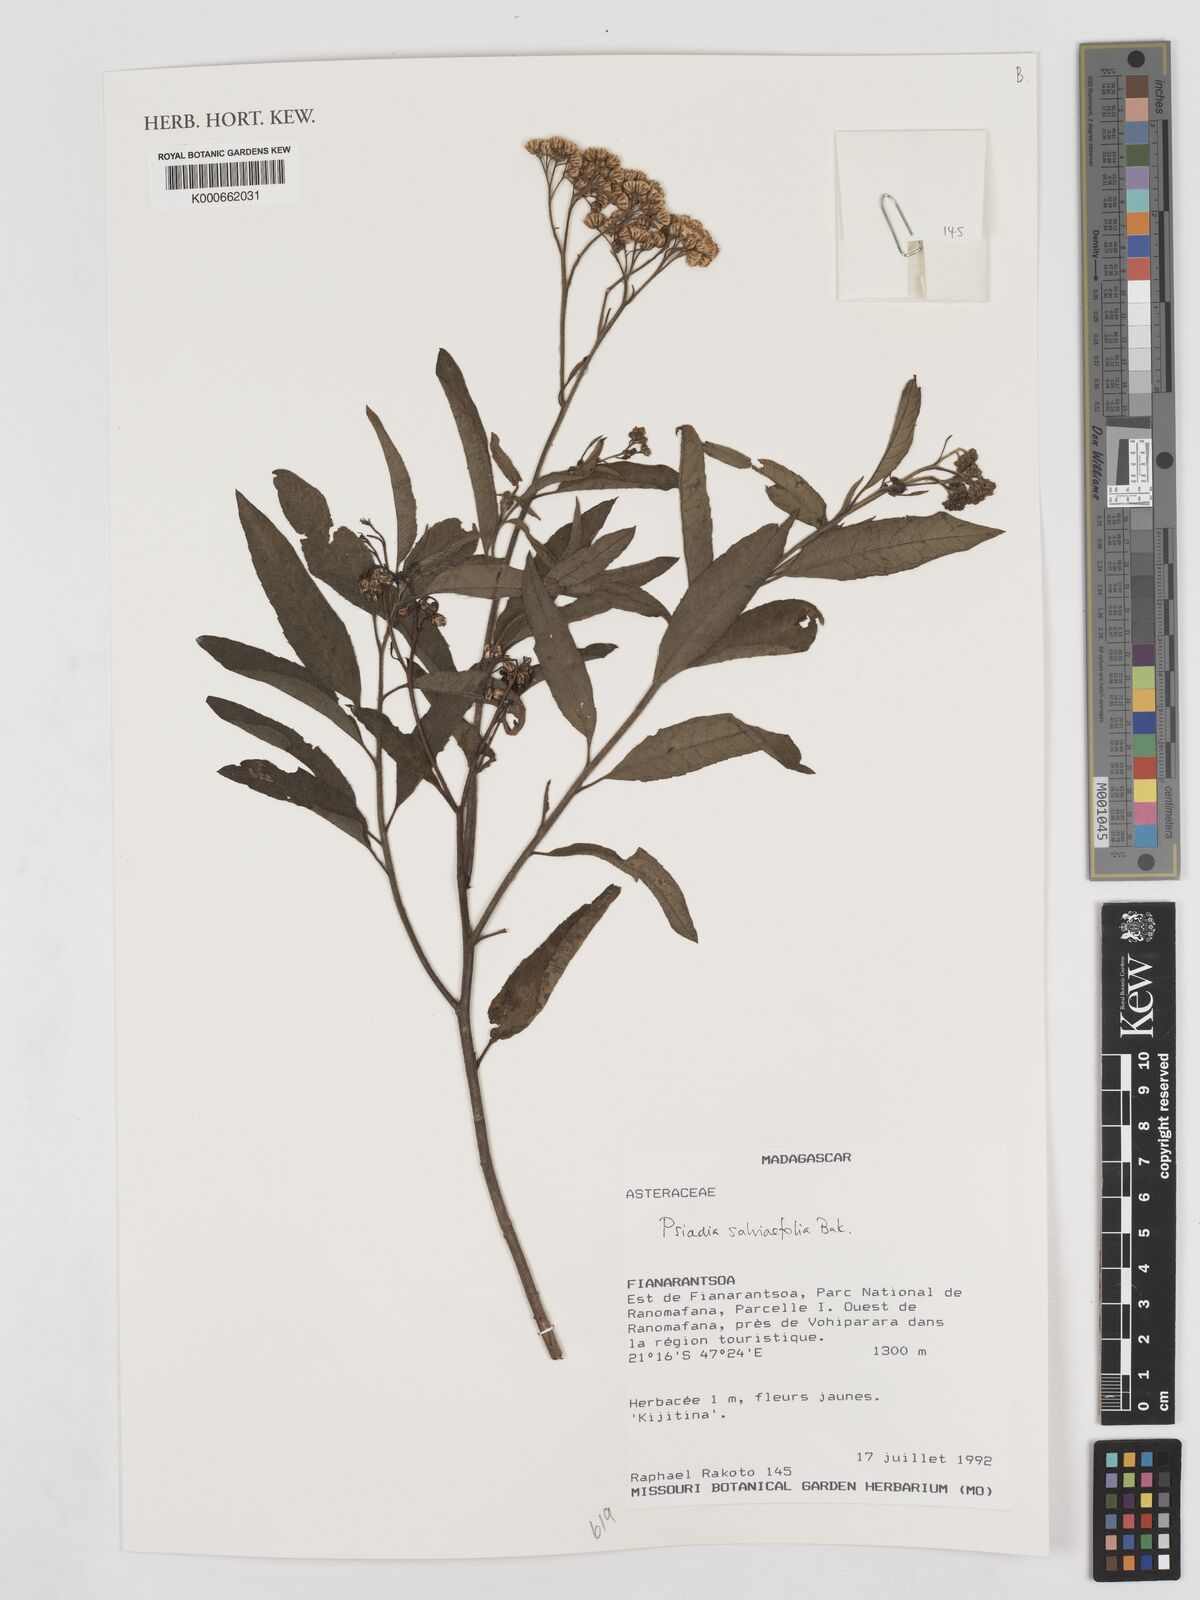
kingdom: Plantae
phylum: Tracheophyta
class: Magnoliopsida
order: Asterales
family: Asteraceae
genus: Psiadia
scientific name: Psiadia
